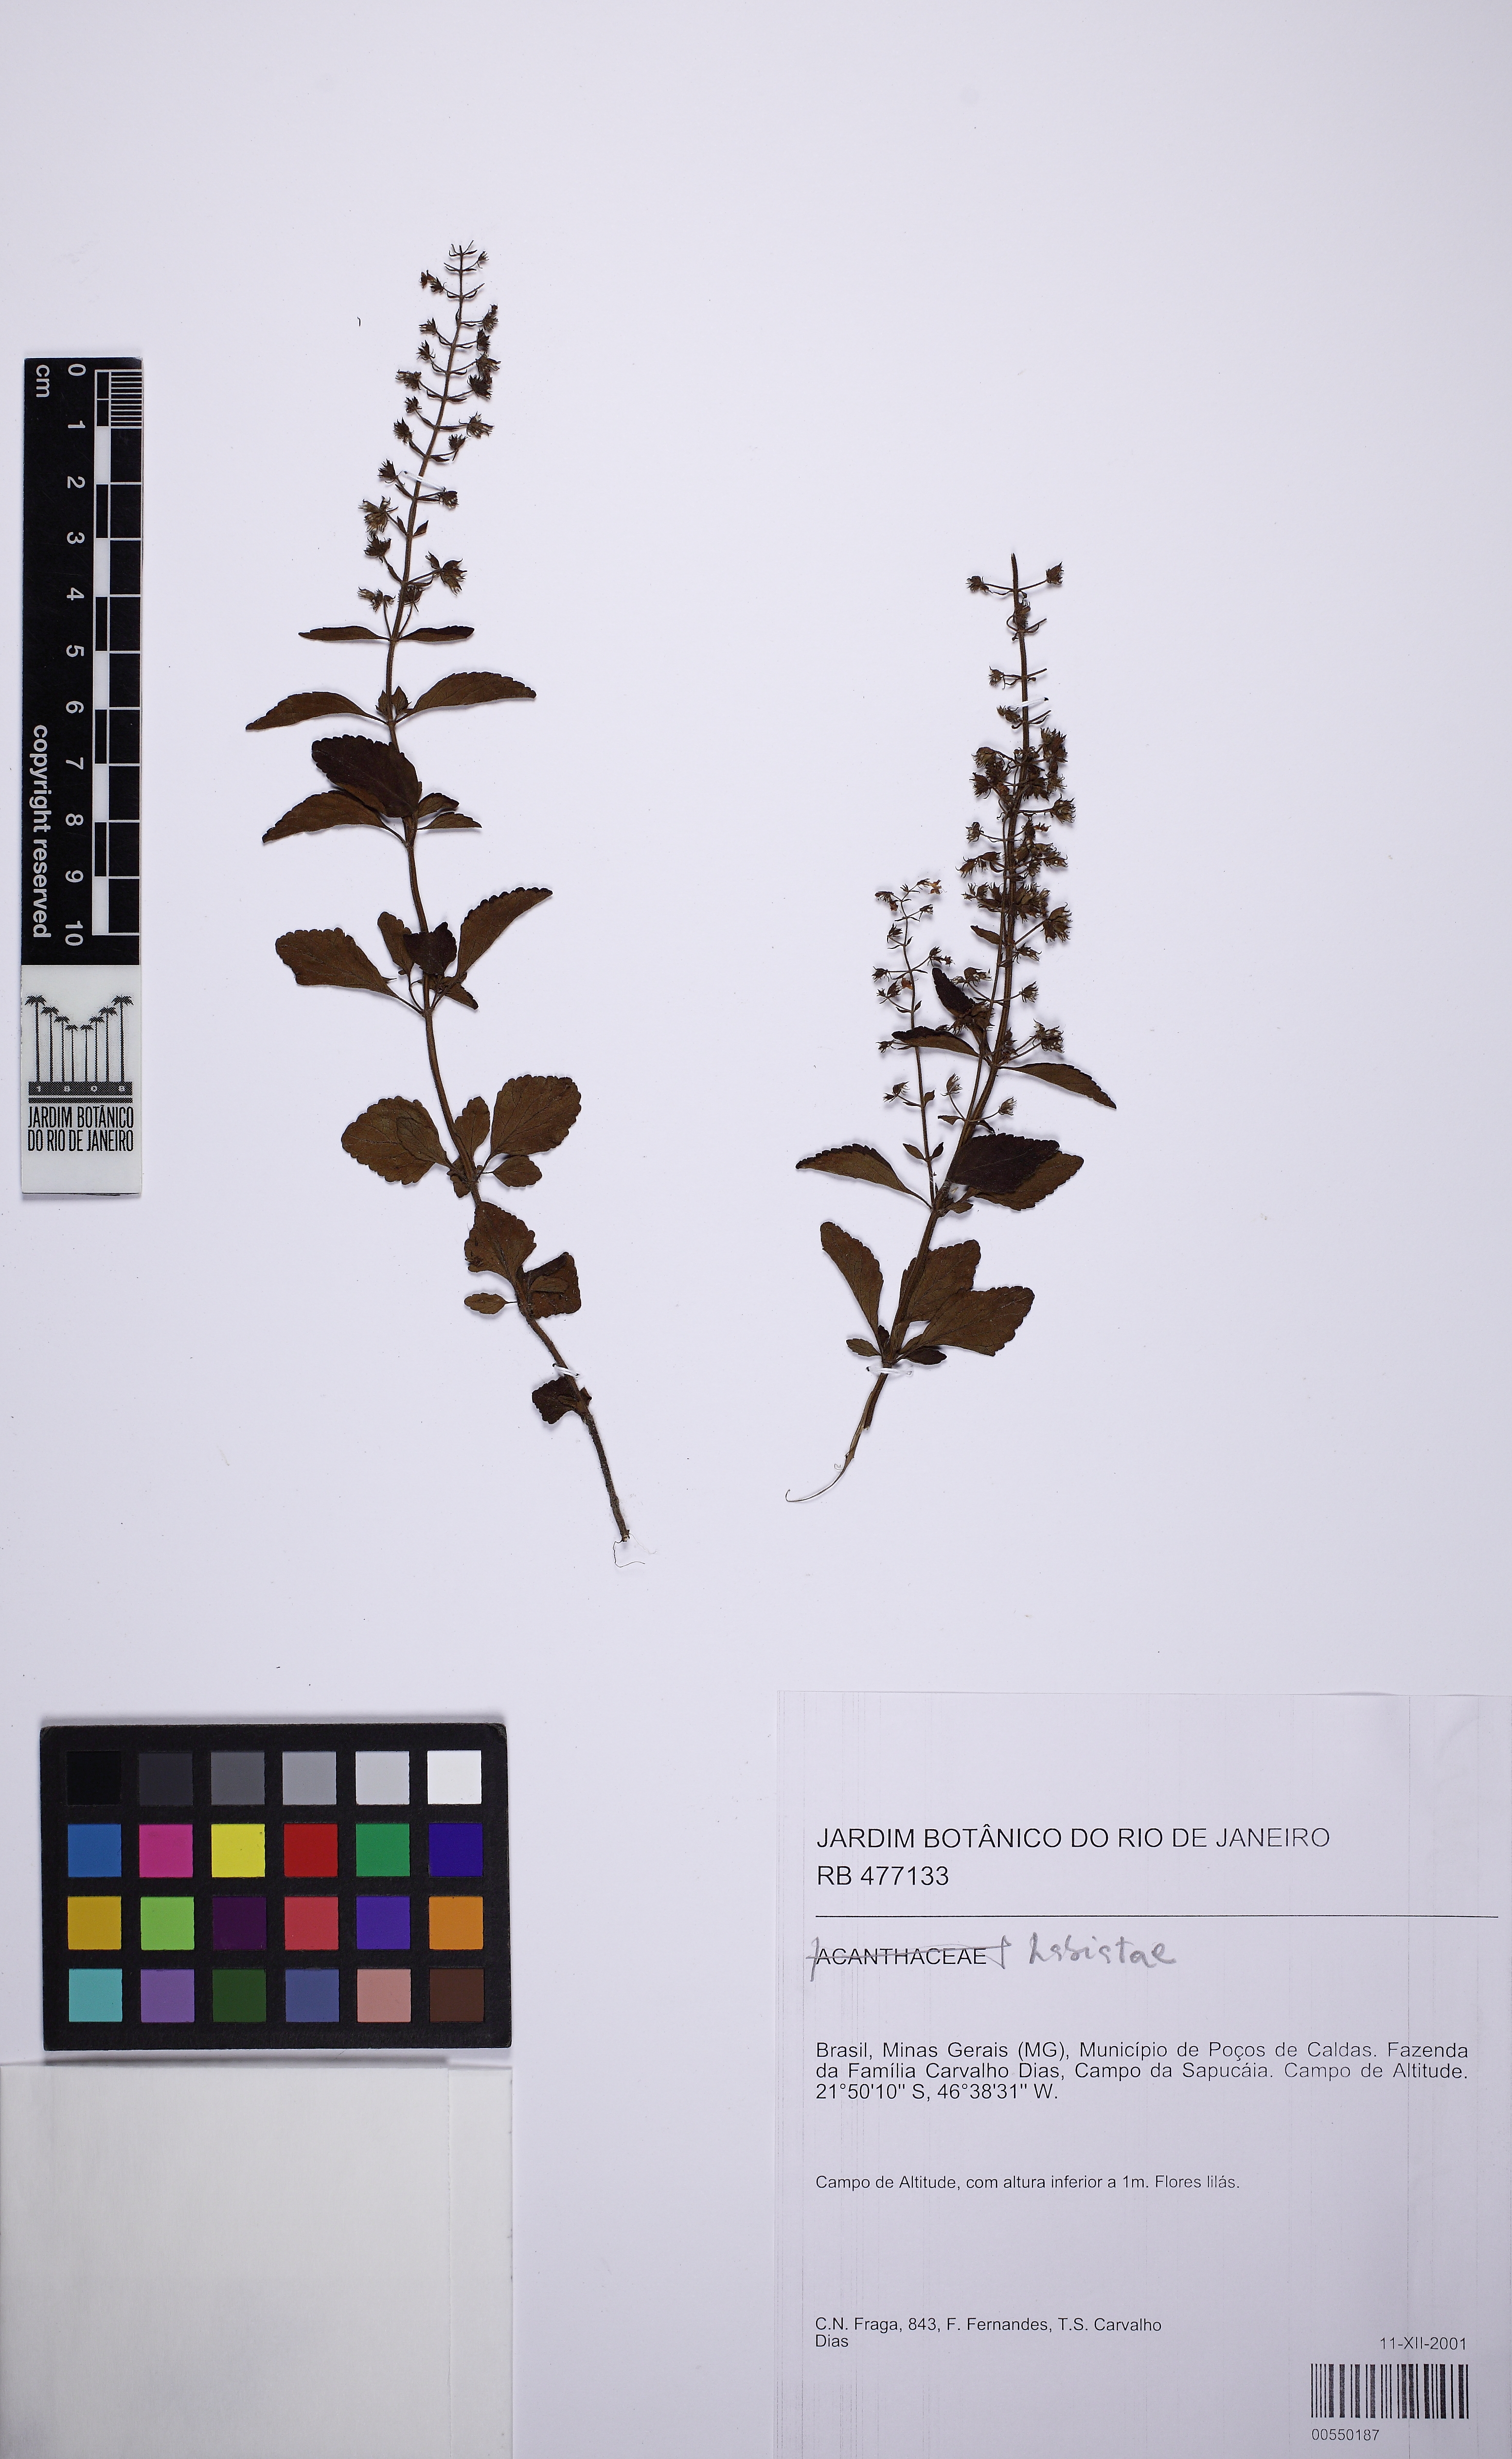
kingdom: Plantae
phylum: Tracheophyta
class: Magnoliopsida
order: Lamiales
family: Lamiaceae
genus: Eriope
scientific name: Eriope
